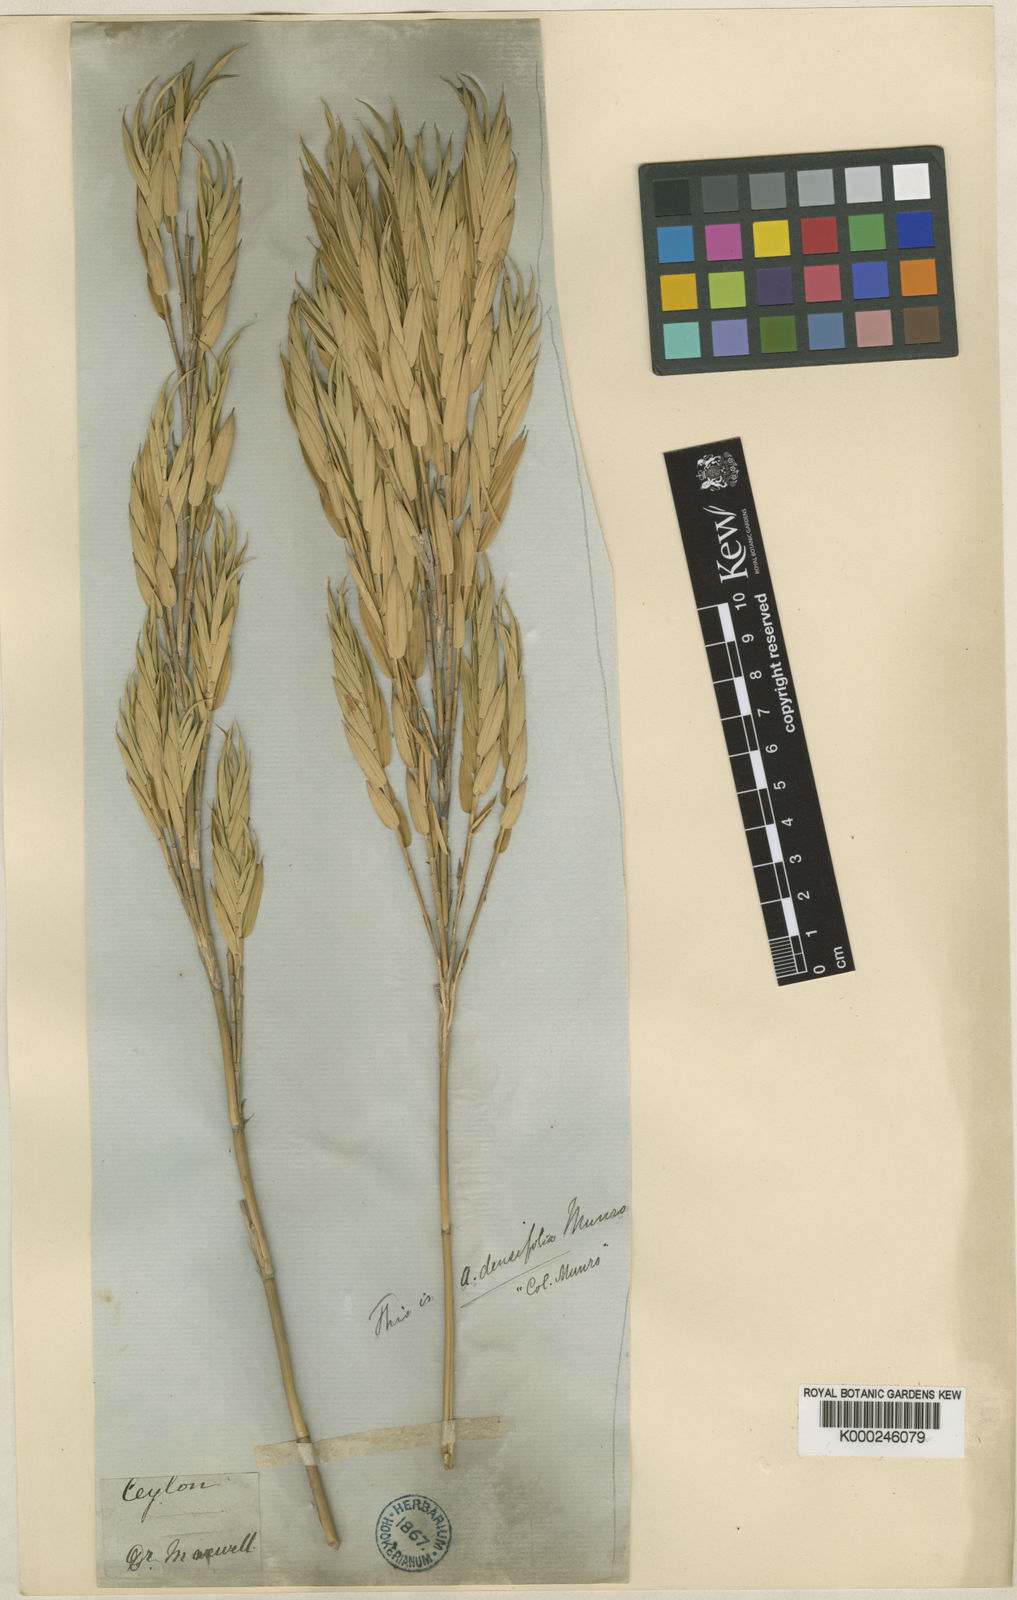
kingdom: Plantae
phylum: Tracheophyta
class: Liliopsida
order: Poales
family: Poaceae
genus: Kuruna
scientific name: Kuruna densifolia
